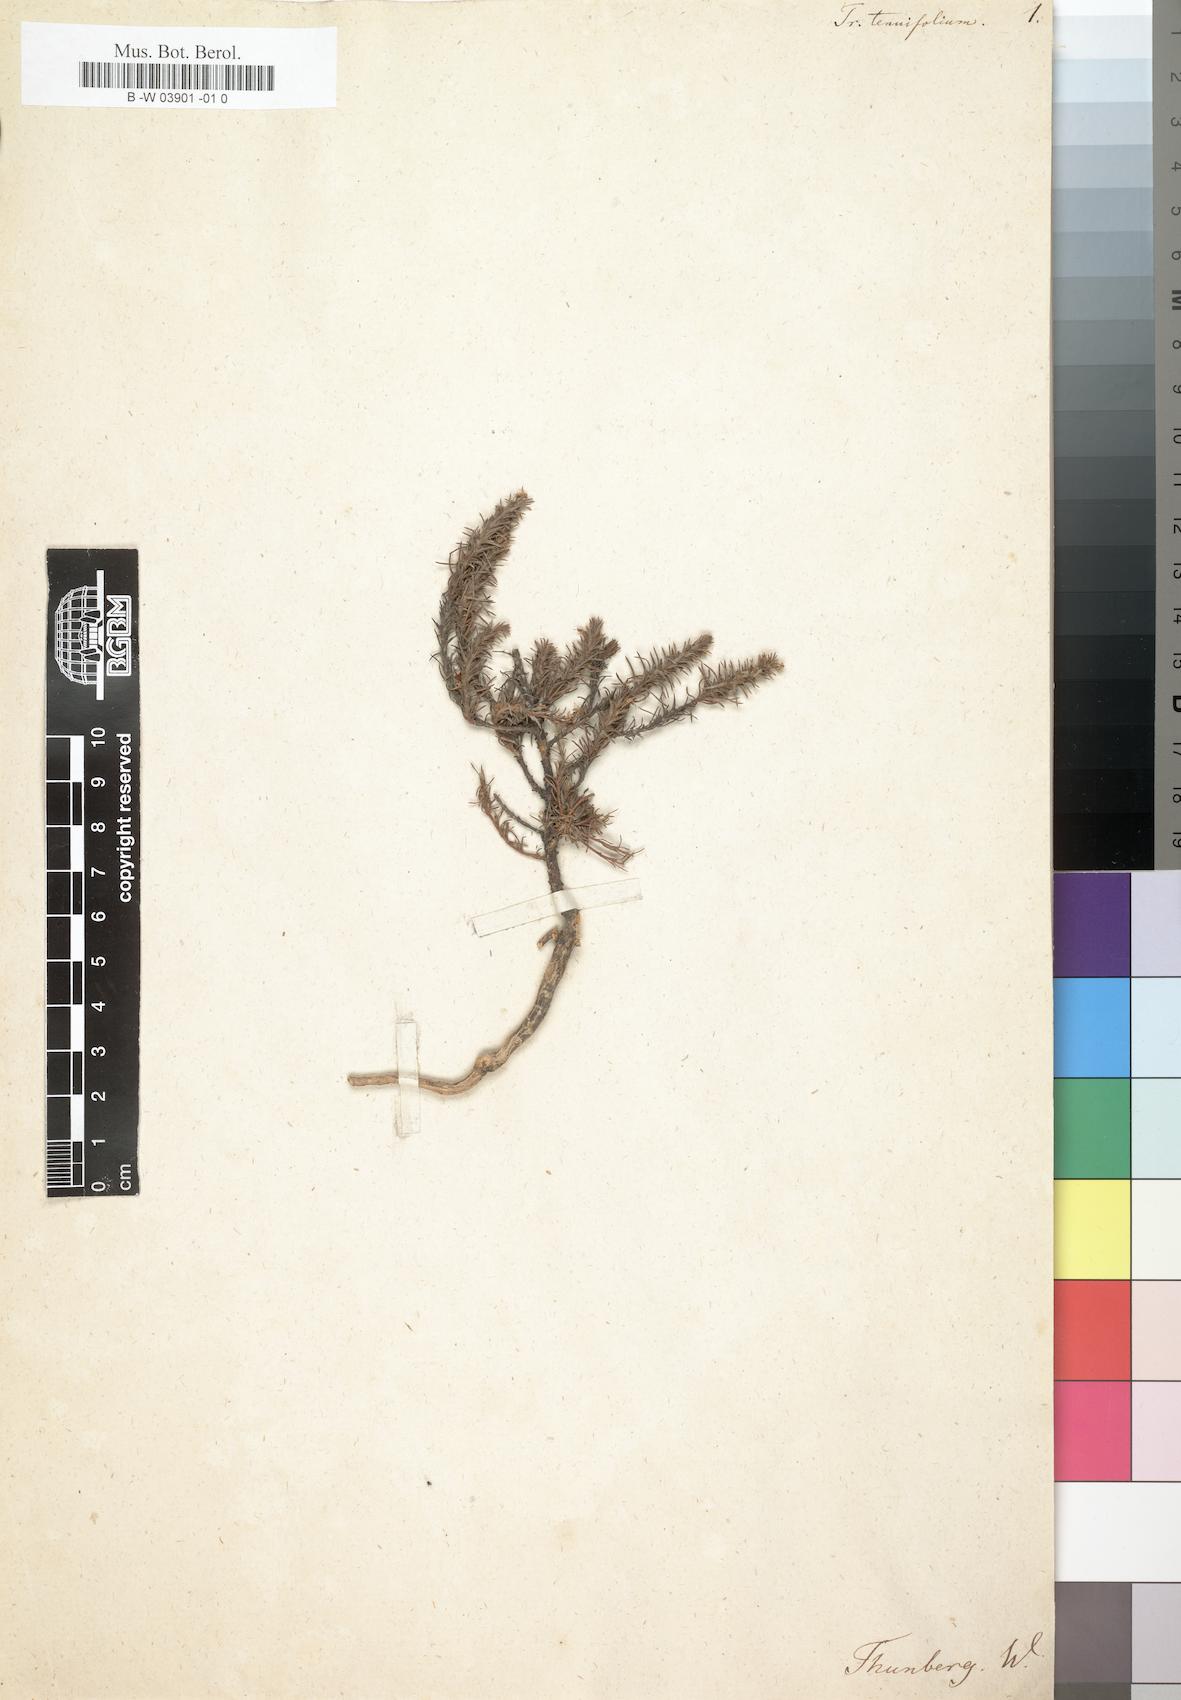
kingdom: Plantae
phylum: Tracheophyta
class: Magnoliopsida
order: Asterales
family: Campanulaceae
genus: Merciera
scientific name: Merciera tenuifolia
